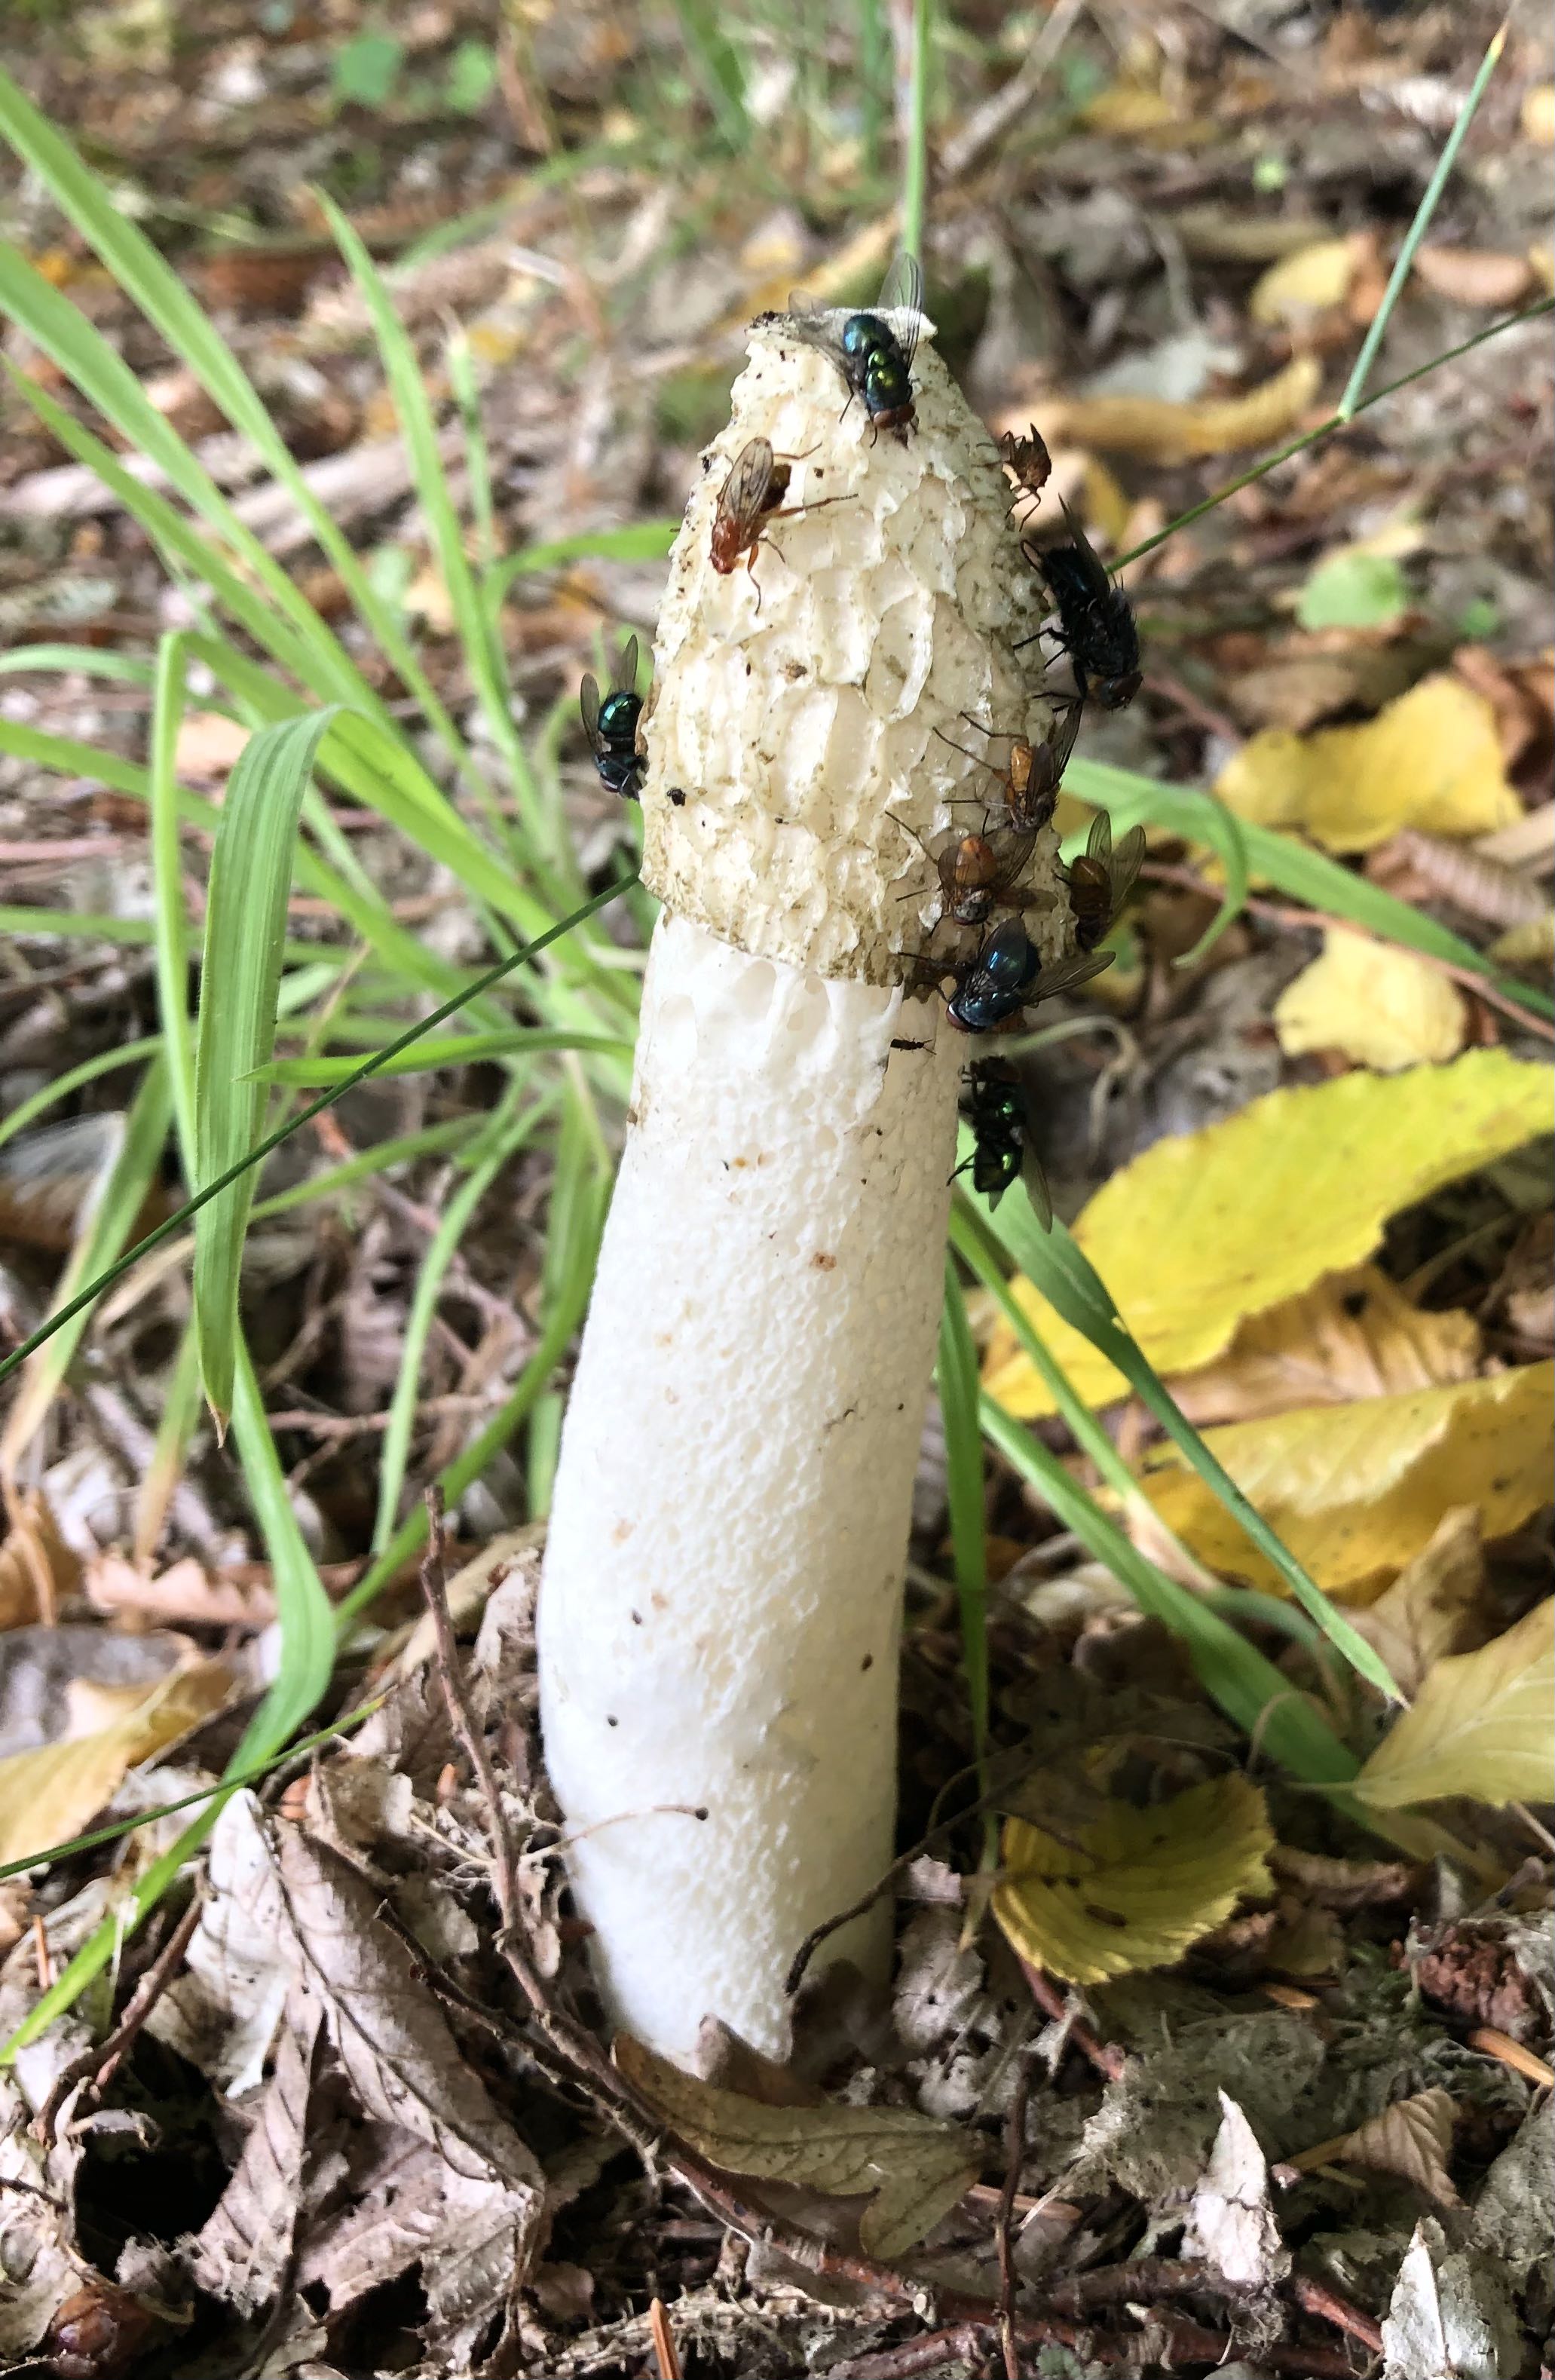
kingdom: Fungi
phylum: Basidiomycota
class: Agaricomycetes
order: Phallales
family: Phallaceae
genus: Phallus
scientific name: Phallus impudicus
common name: almindelig stinksvamp
